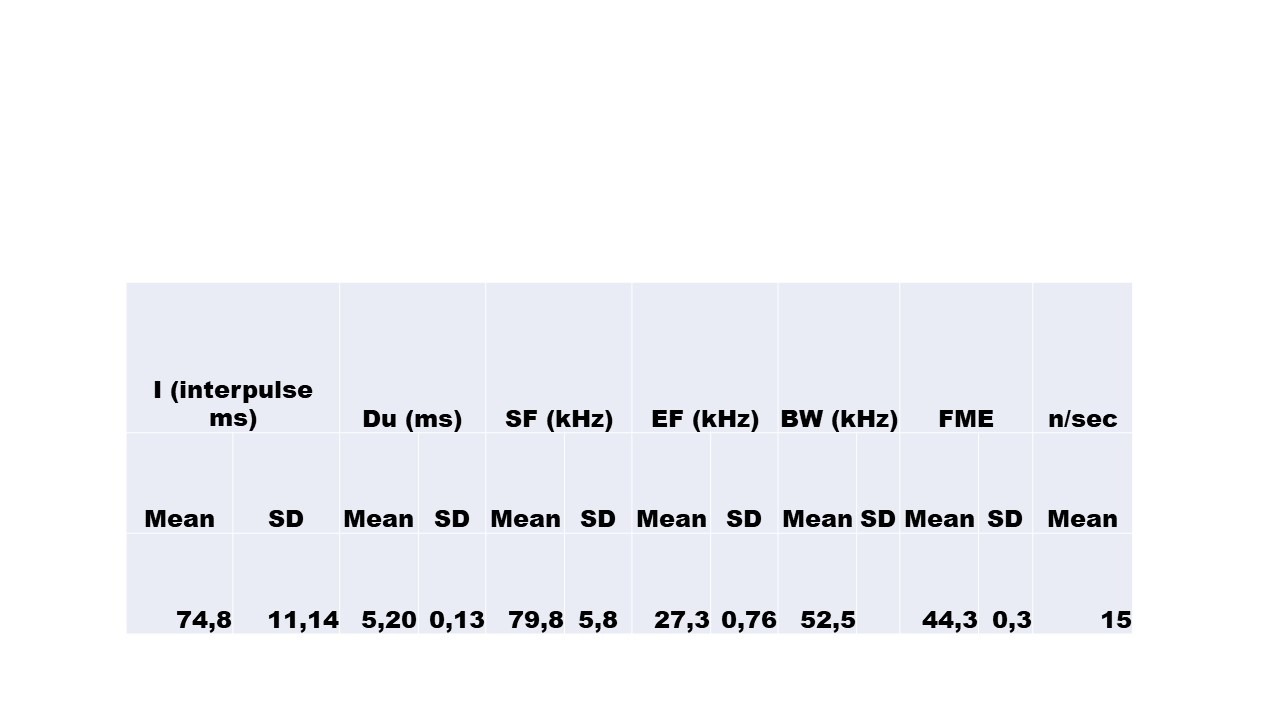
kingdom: Animalia
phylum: Chordata
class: Mammalia
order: Chiroptera
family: Vespertilionidae
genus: Myotis
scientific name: Myotis daubentonii
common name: Vandflagermus
